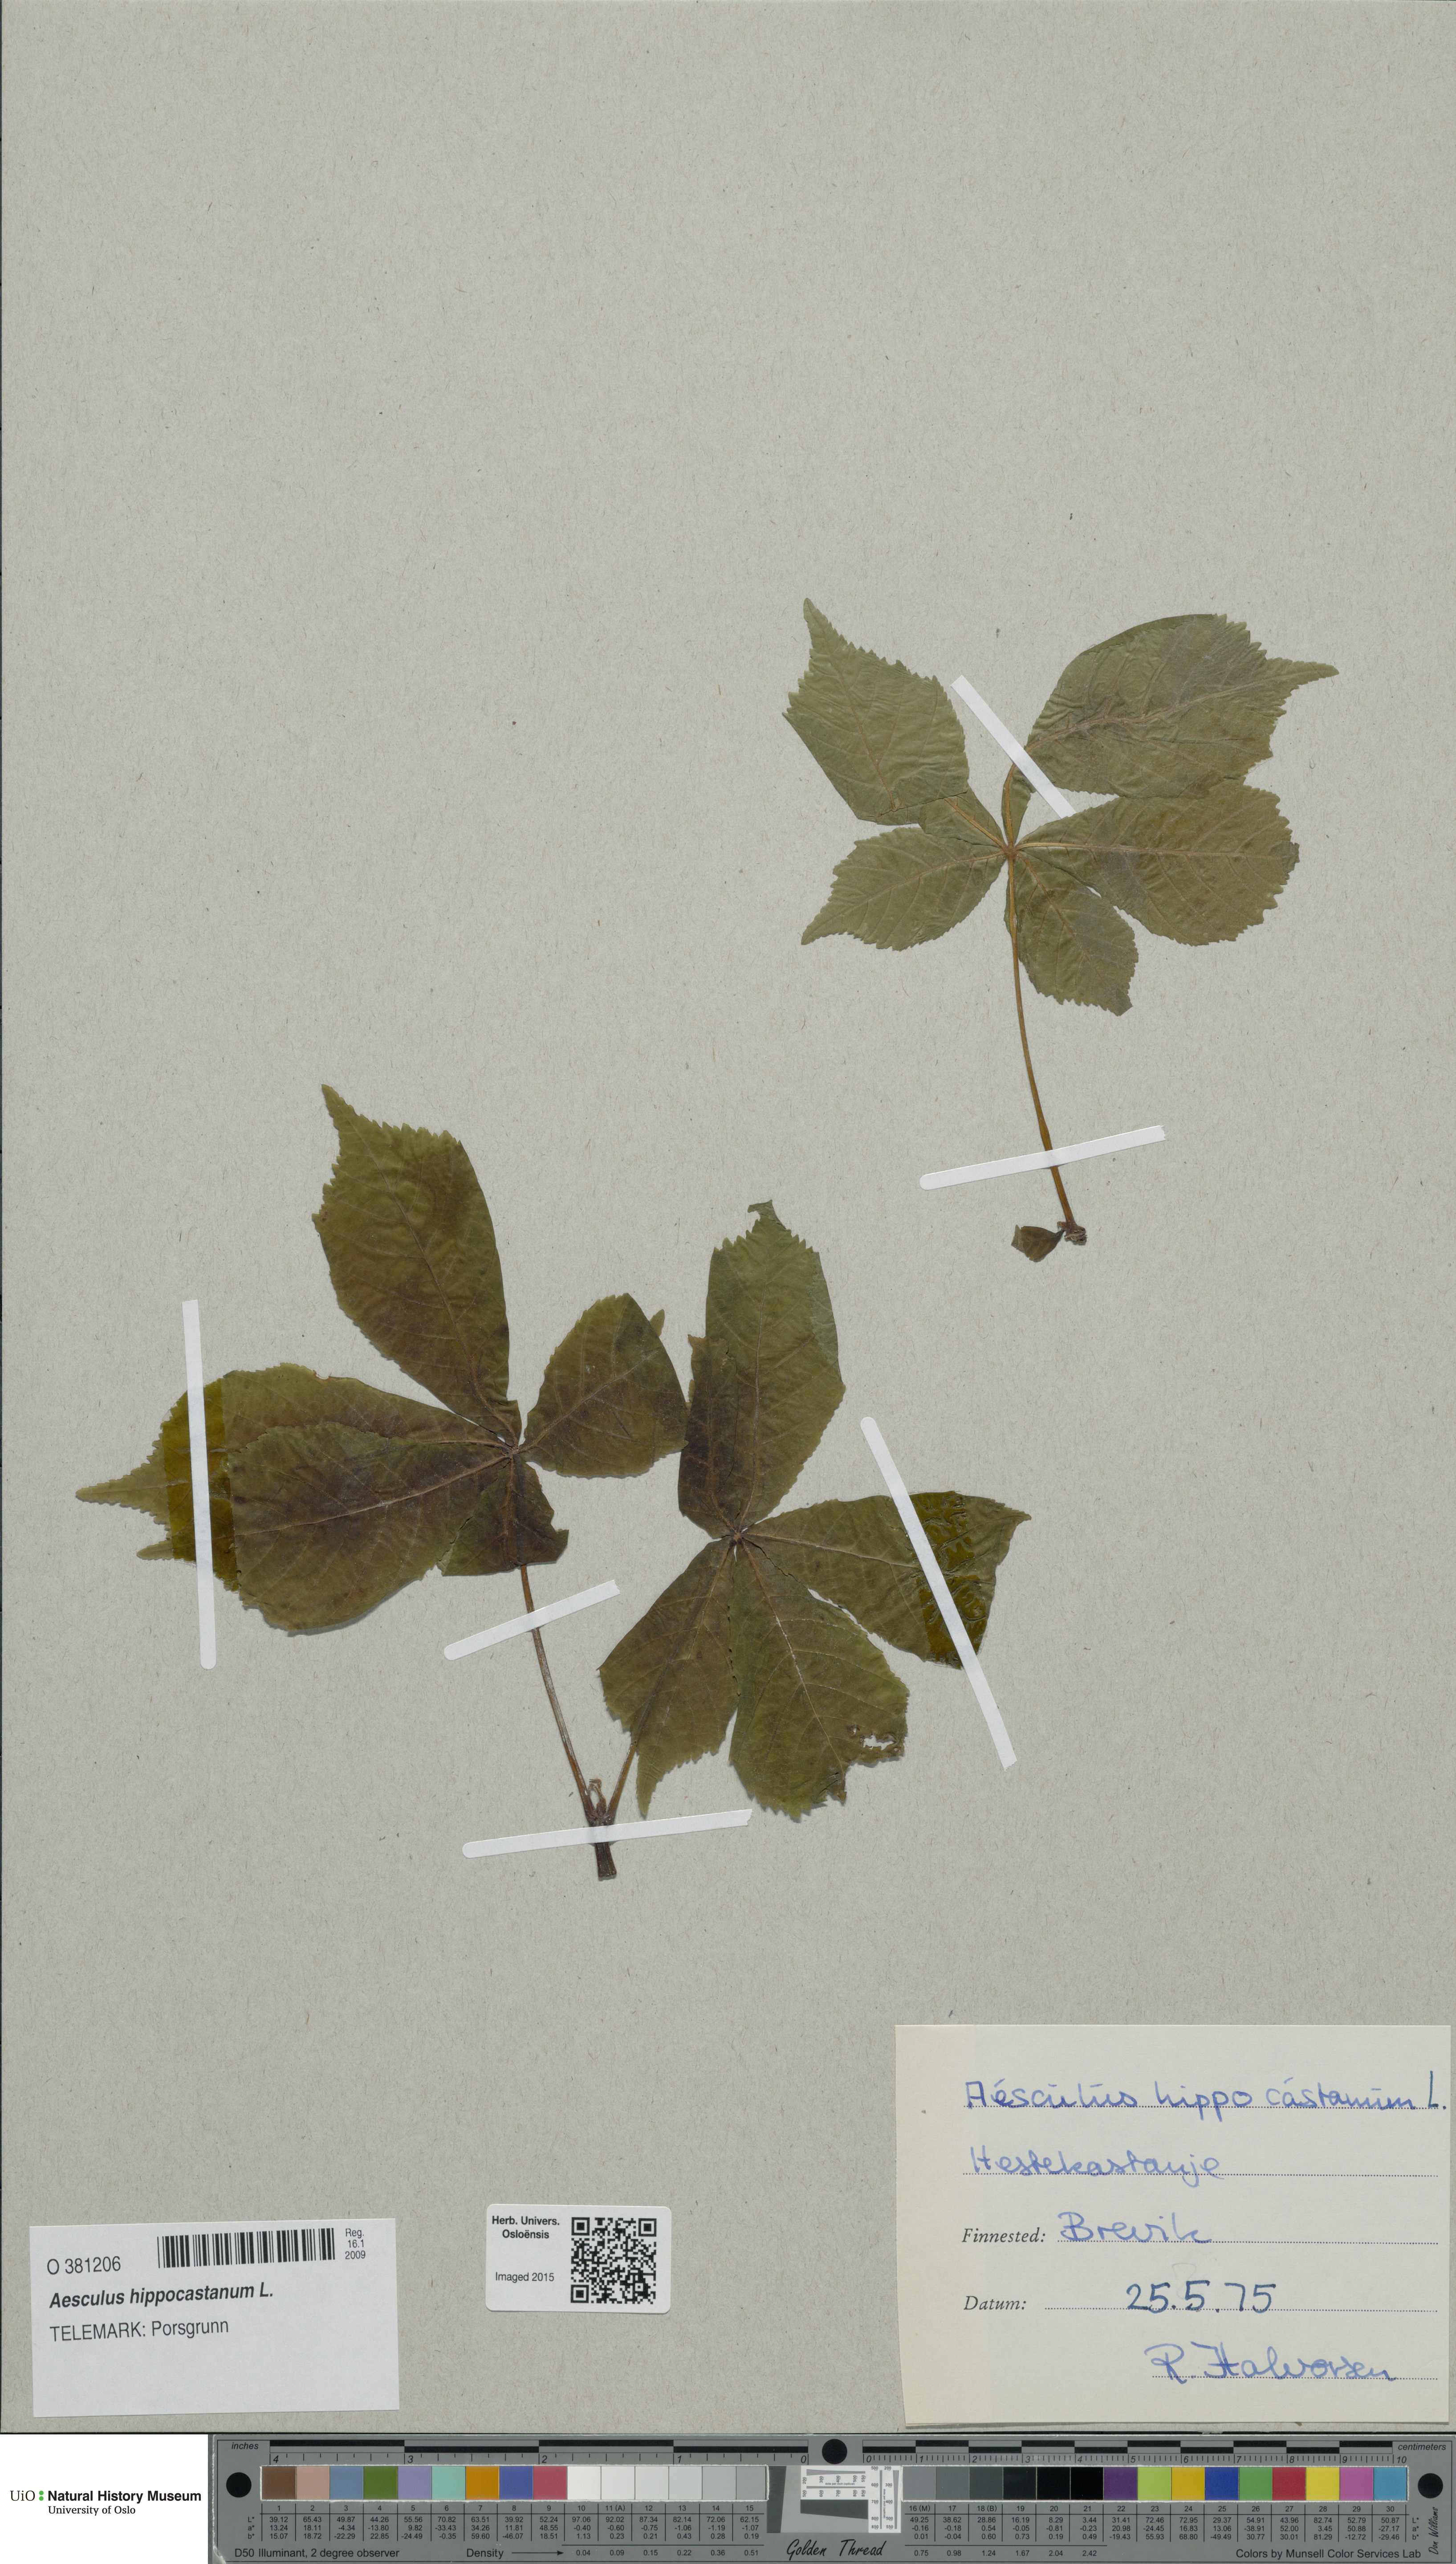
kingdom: Plantae
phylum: Tracheophyta
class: Magnoliopsida
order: Sapindales
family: Sapindaceae
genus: Aesculus
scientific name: Aesculus hippocastanum
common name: Horse-chestnut
